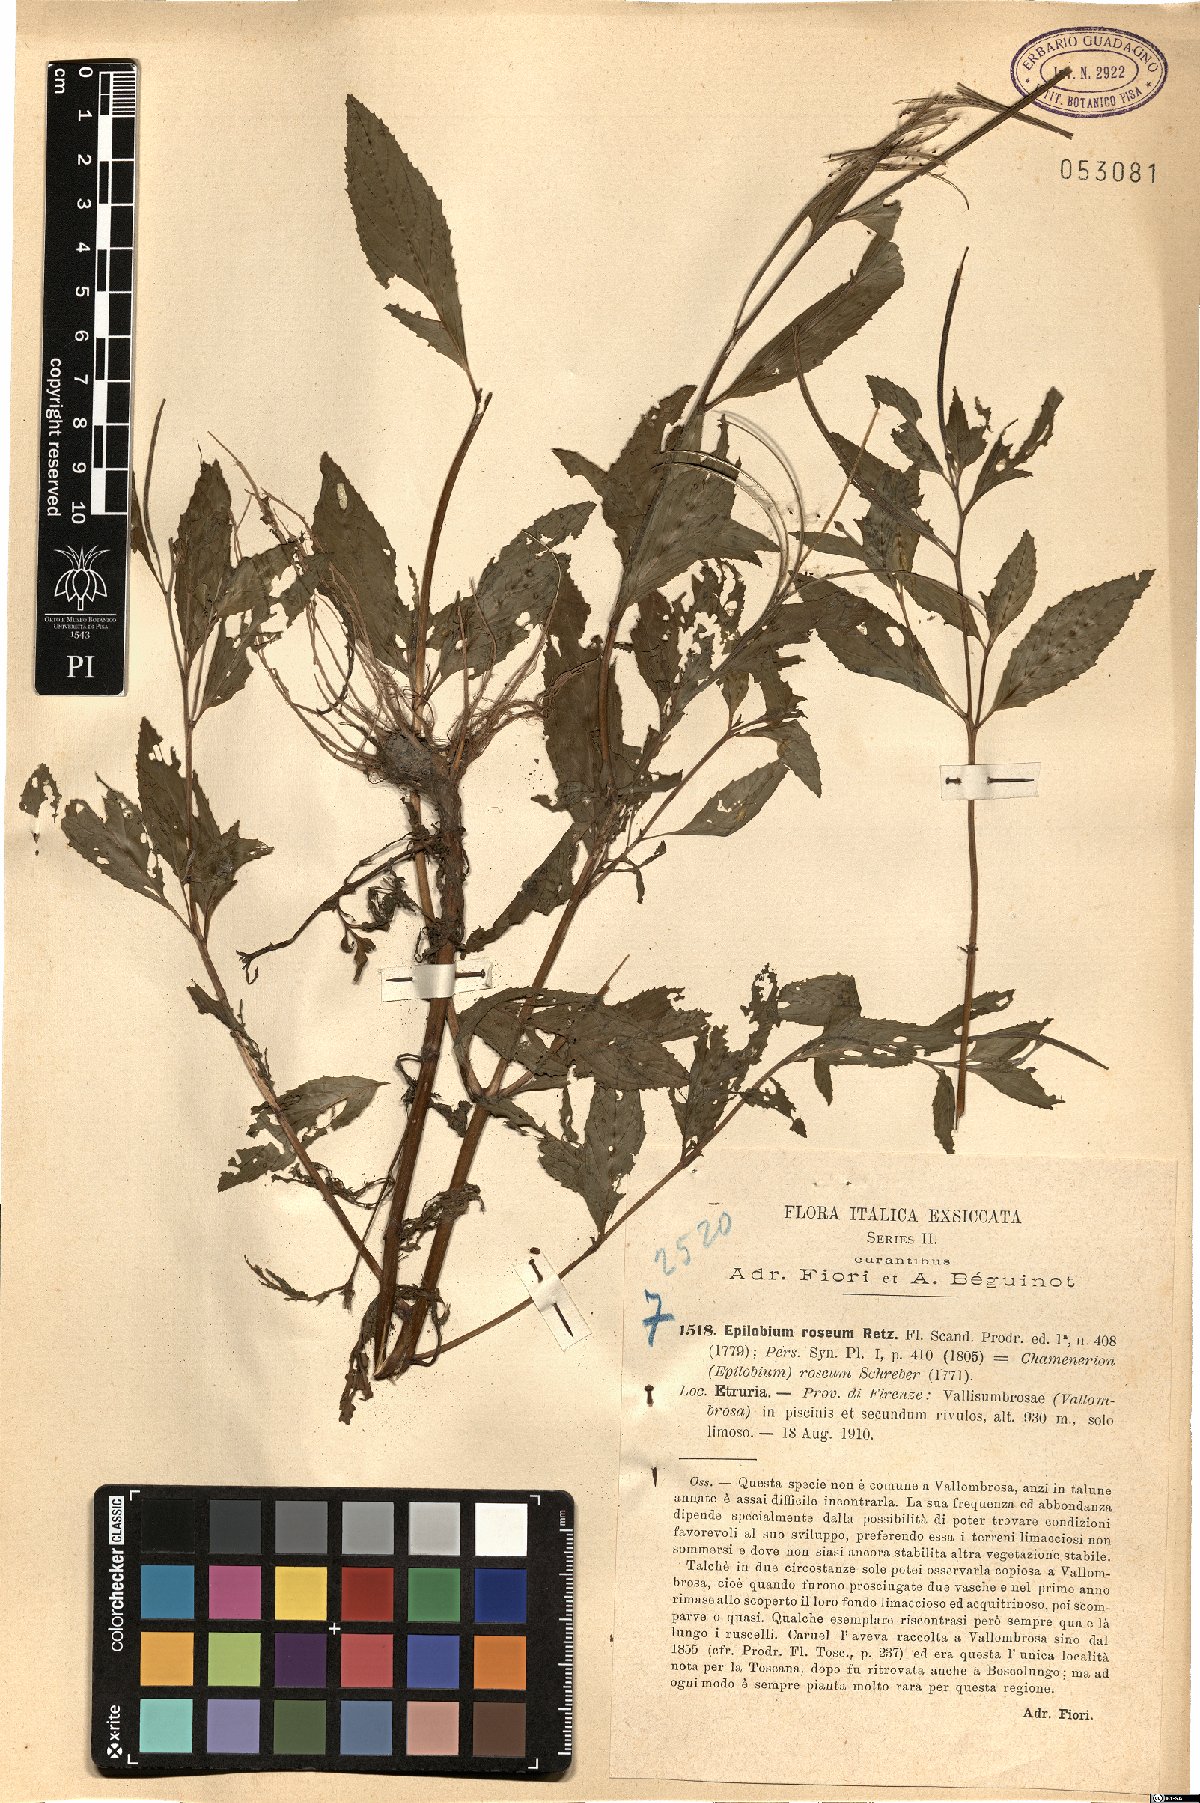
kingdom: Plantae
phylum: Tracheophyta
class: Magnoliopsida
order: Myrtales
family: Onagraceae
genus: Epilobium
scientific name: Epilobium roseum
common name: Pale willowherb
